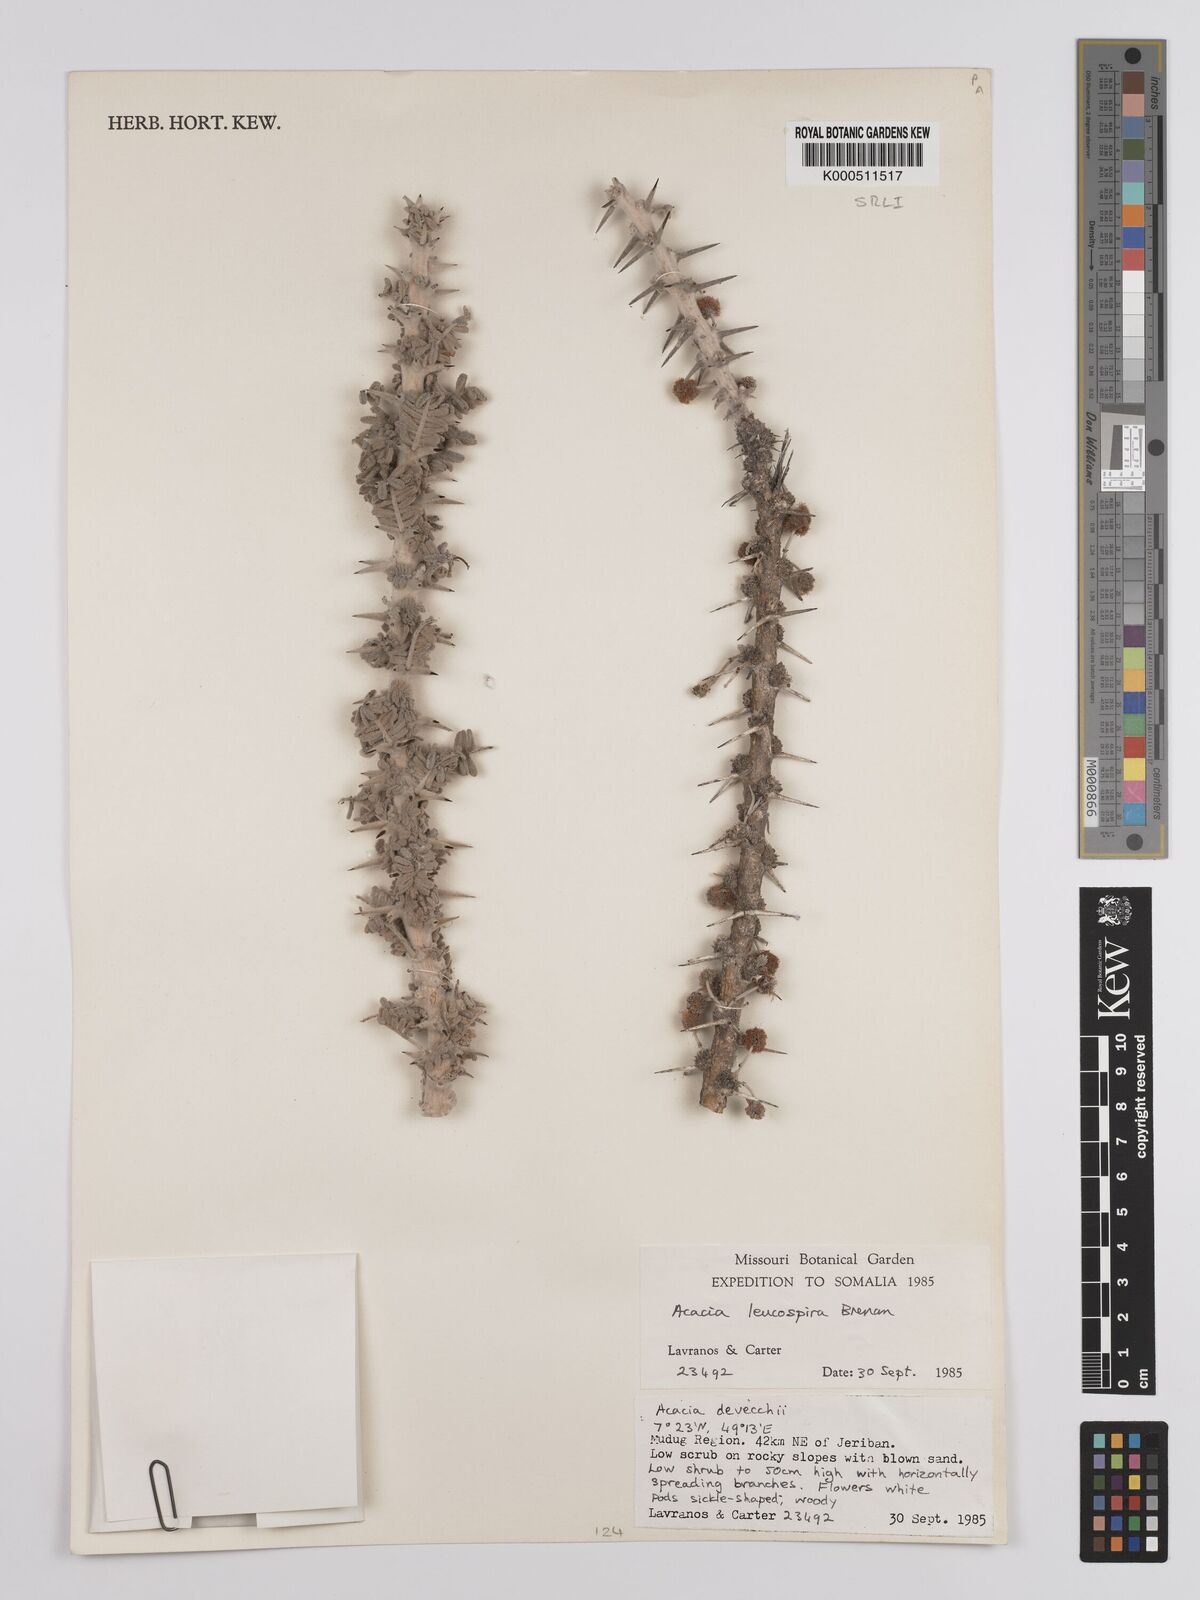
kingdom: Plantae
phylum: Tracheophyta
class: Magnoliopsida
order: Fabales
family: Fabaceae
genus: Vachellia
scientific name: Vachellia leucospira
